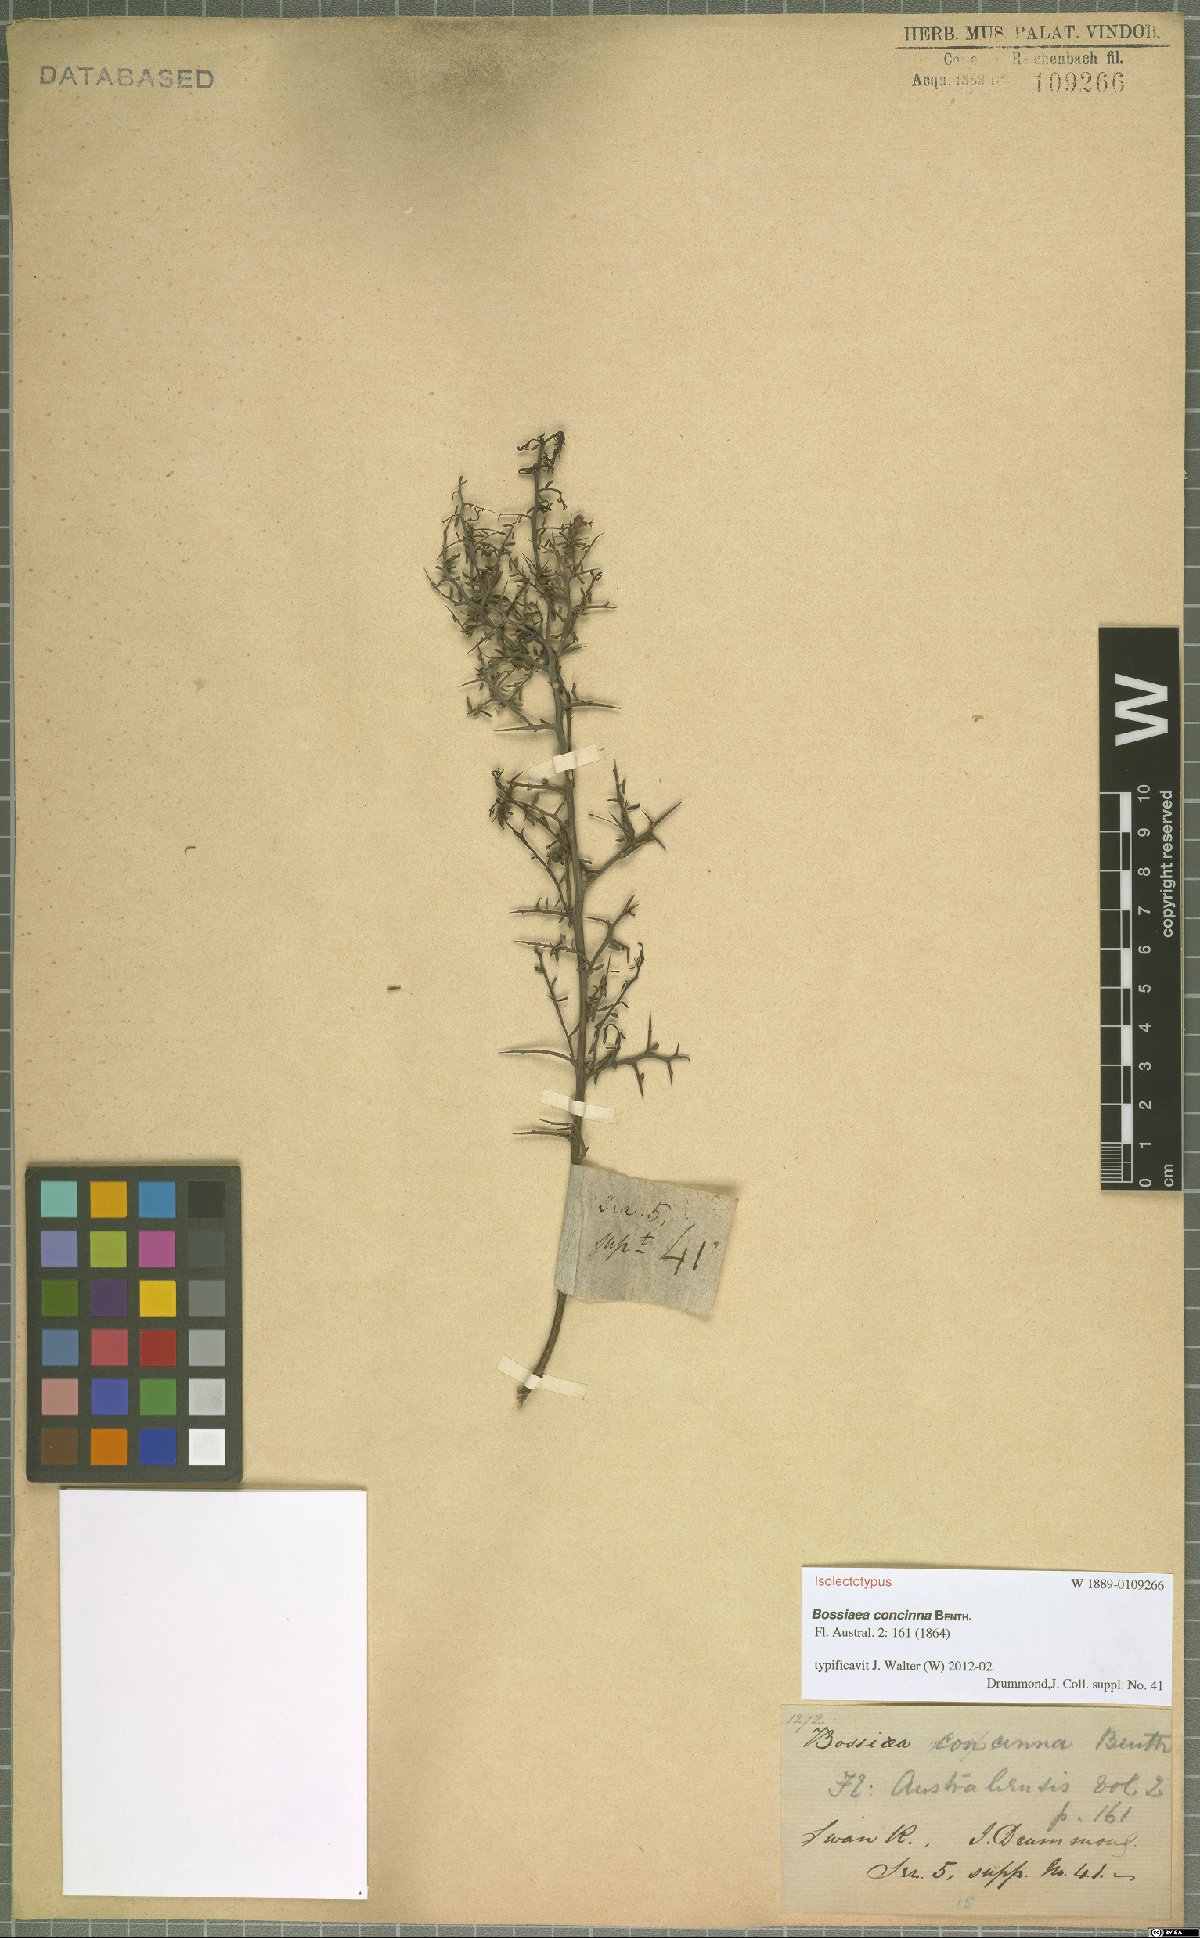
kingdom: Plantae
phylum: Tracheophyta
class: Magnoliopsida
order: Fabales
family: Fabaceae
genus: Bossiaea
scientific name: Bossiaea concinna
